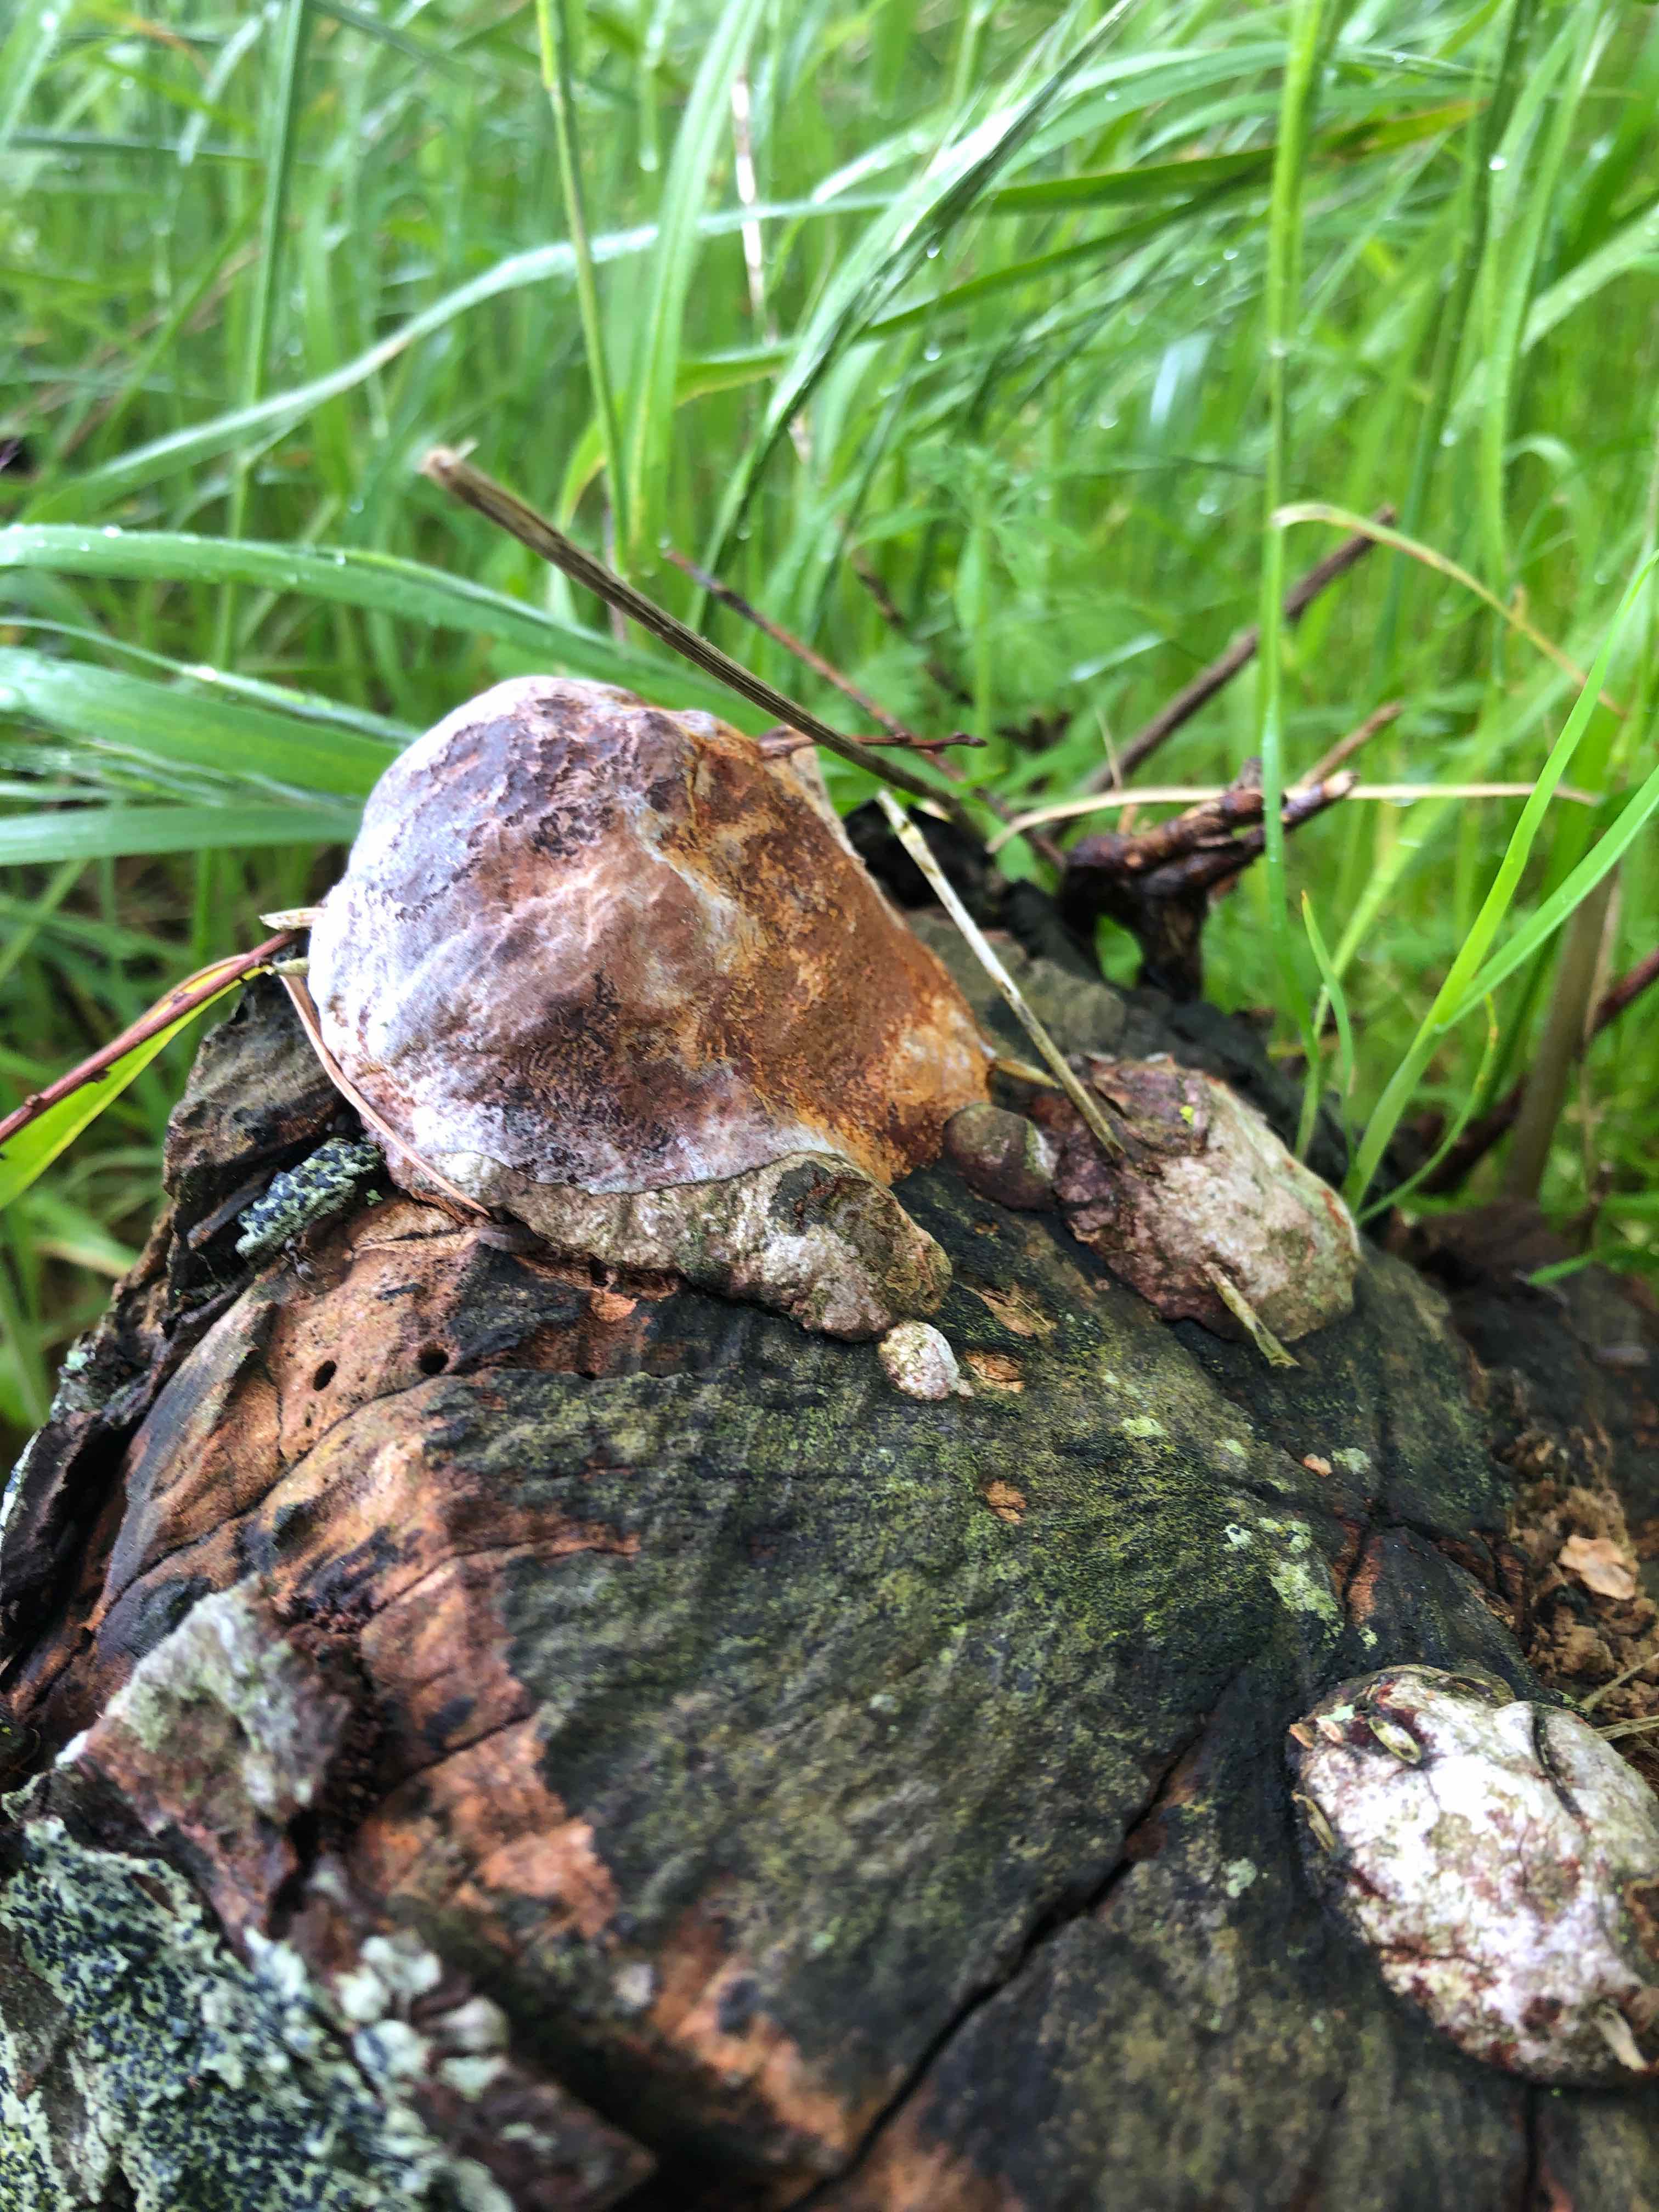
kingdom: Fungi
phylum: Basidiomycota
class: Agaricomycetes
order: Hymenochaetales
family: Hymenochaetaceae
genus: Phellinus
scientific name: Phellinus pomaceus
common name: blomme-ildporesvamp
